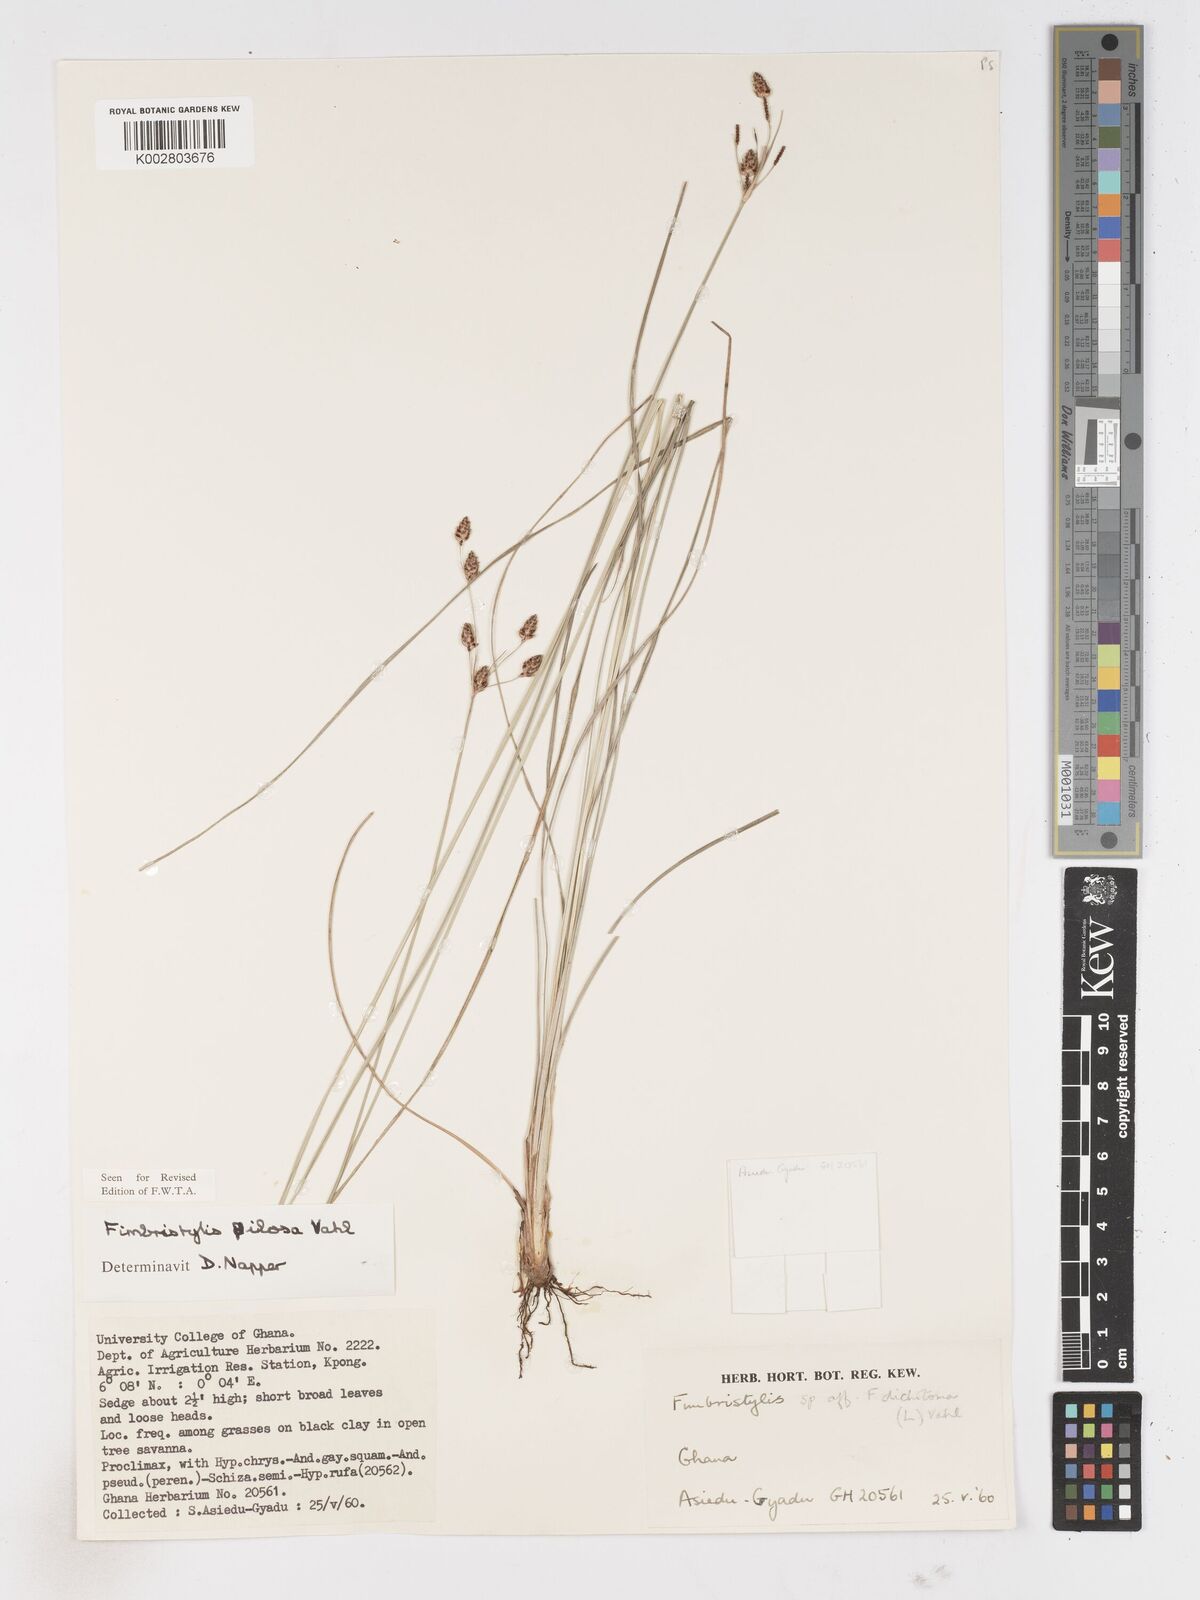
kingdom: Plantae
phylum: Tracheophyta
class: Liliopsida
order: Poales
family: Cyperaceae
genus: Fimbristylis
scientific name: Fimbristylis pilosa
